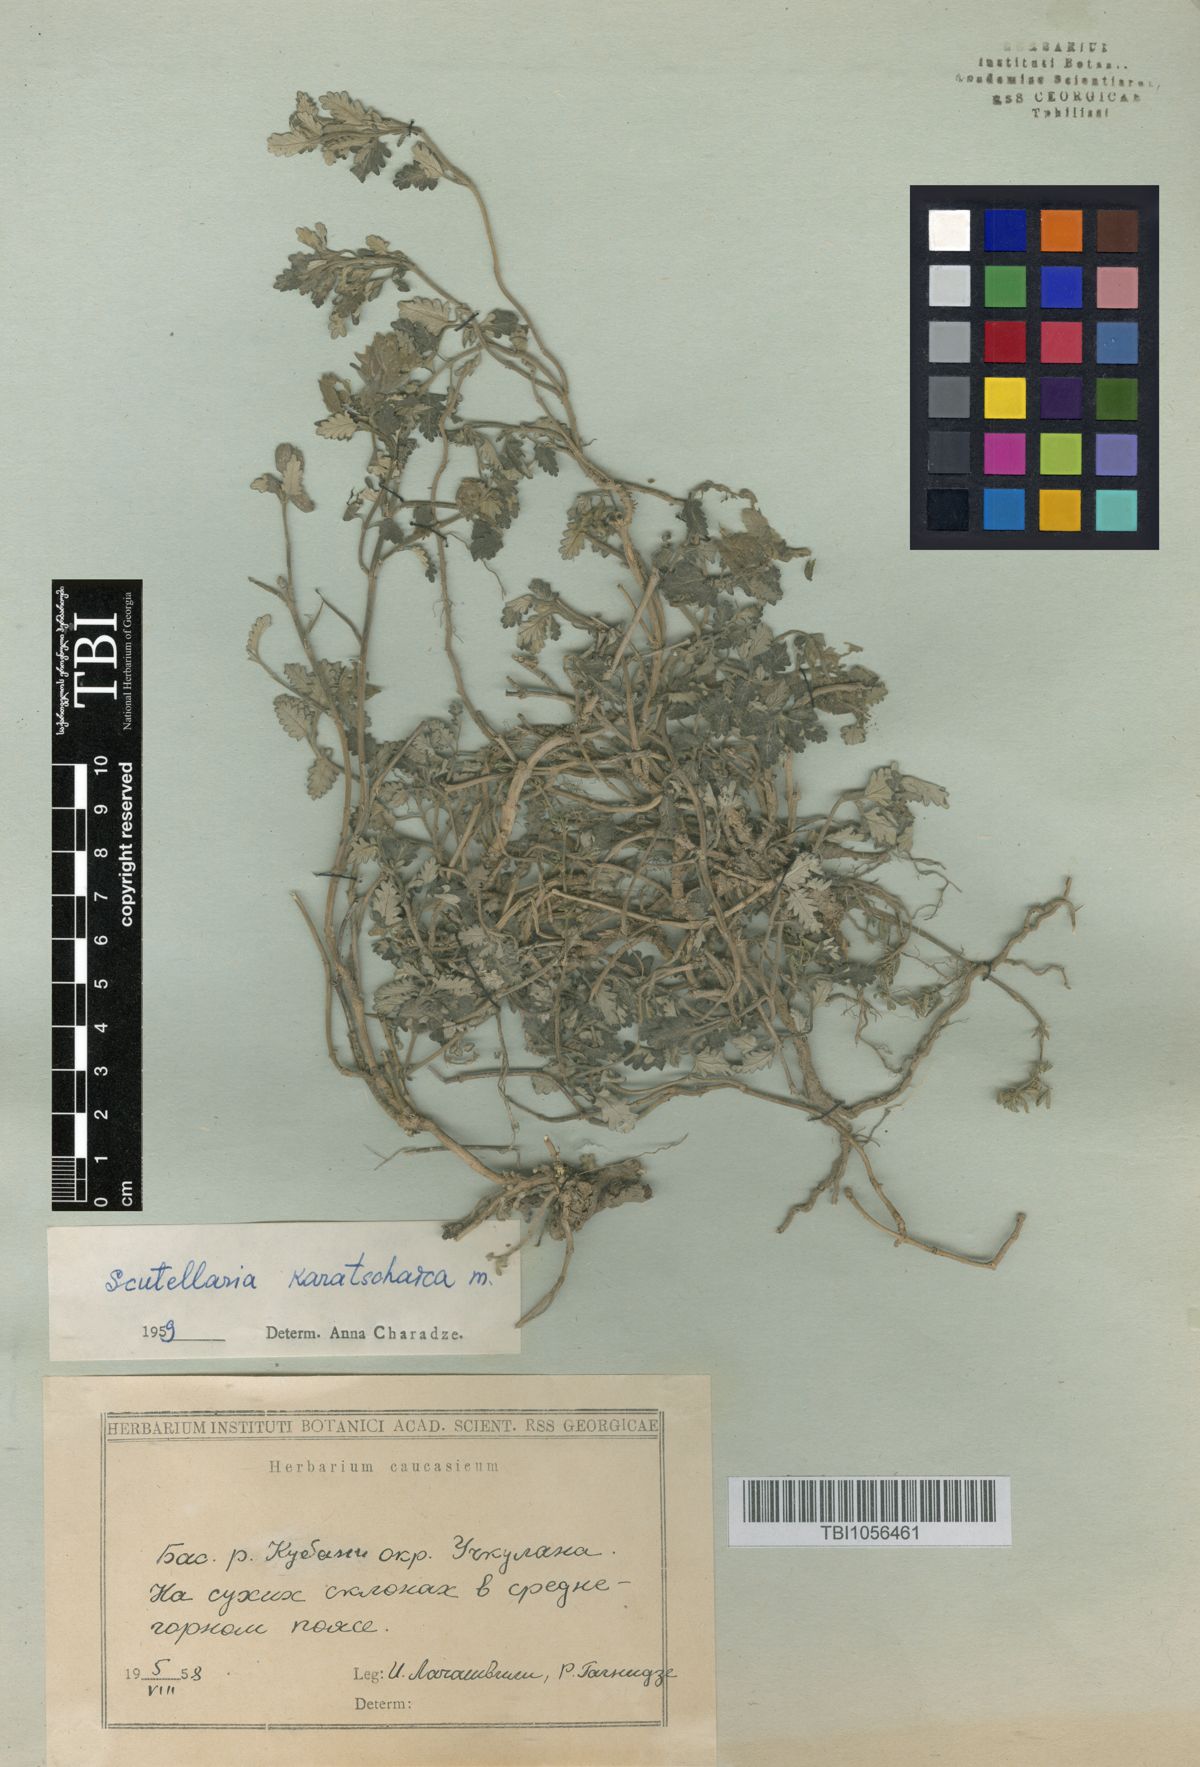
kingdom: Plantae
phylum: Tracheophyta
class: Magnoliopsida
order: Lamiales
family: Lamiaceae
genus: Scutellaria
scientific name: Scutellaria orientalis
